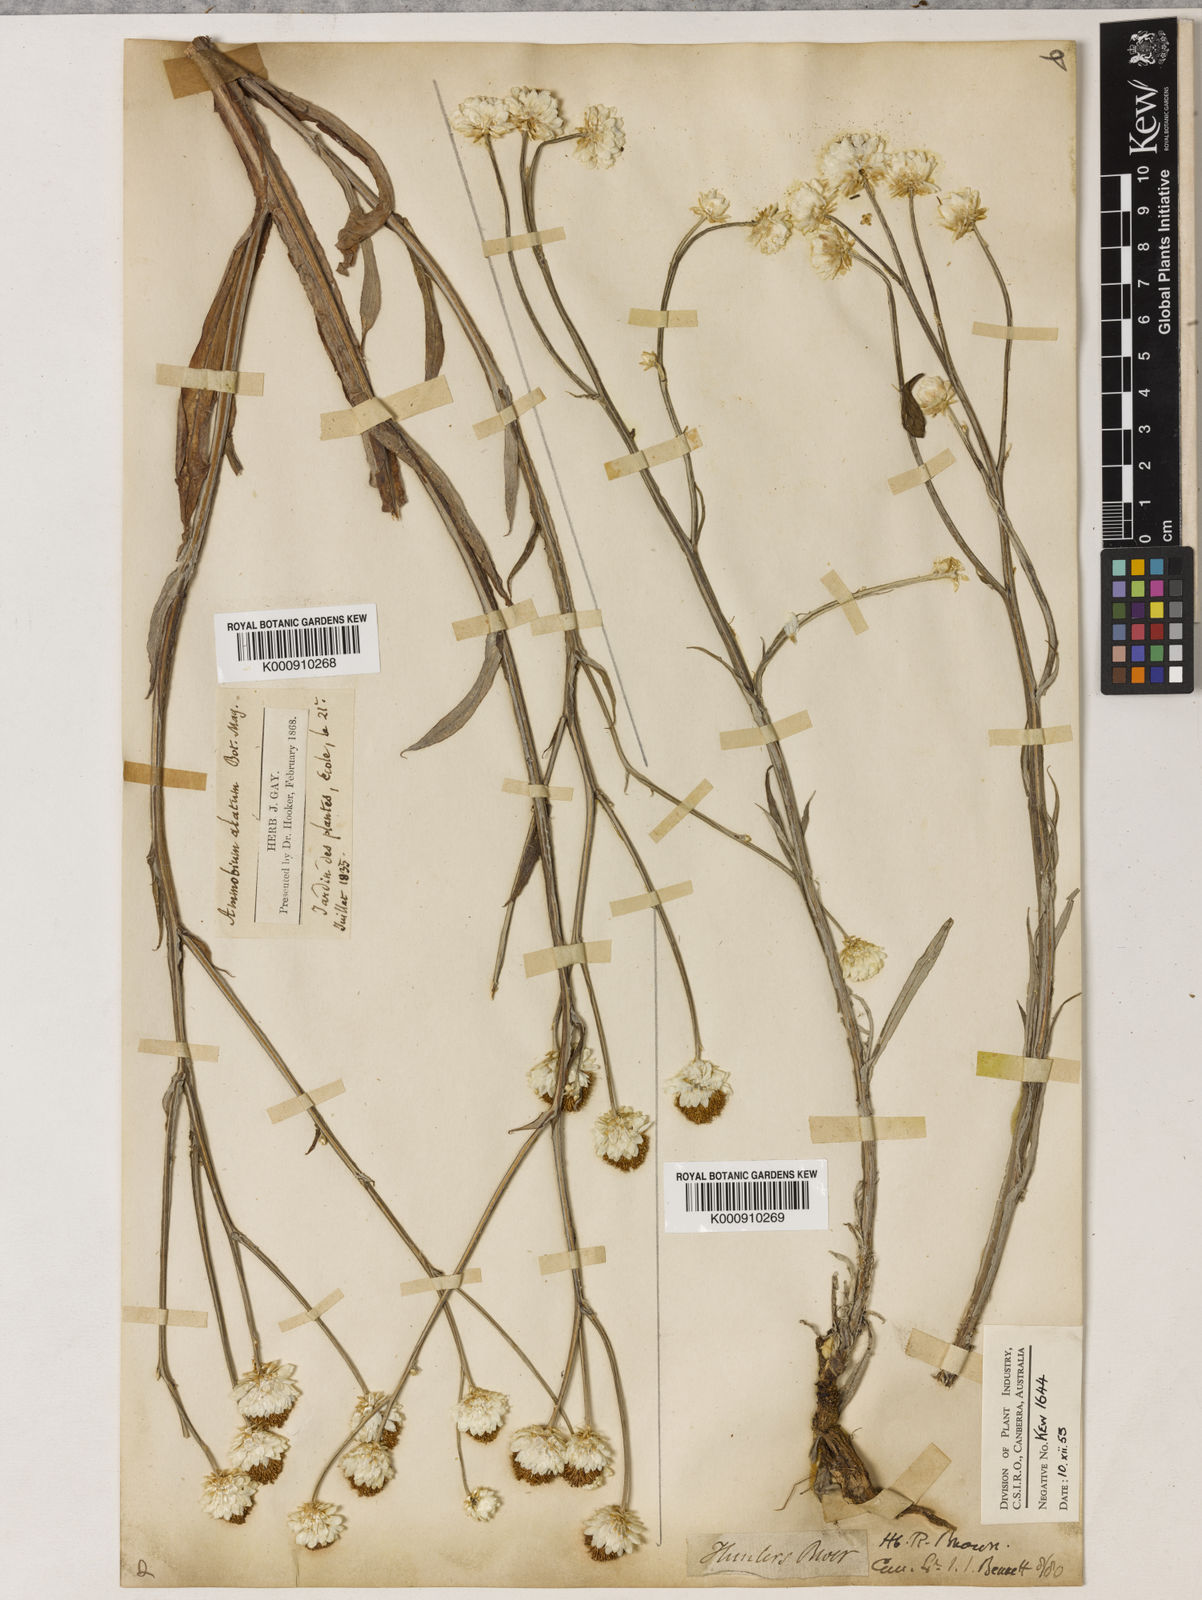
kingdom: Plantae
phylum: Tracheophyta
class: Magnoliopsida
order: Asterales
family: Asteraceae
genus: Ammobium
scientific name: Ammobium alatum
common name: Winged everlasting
